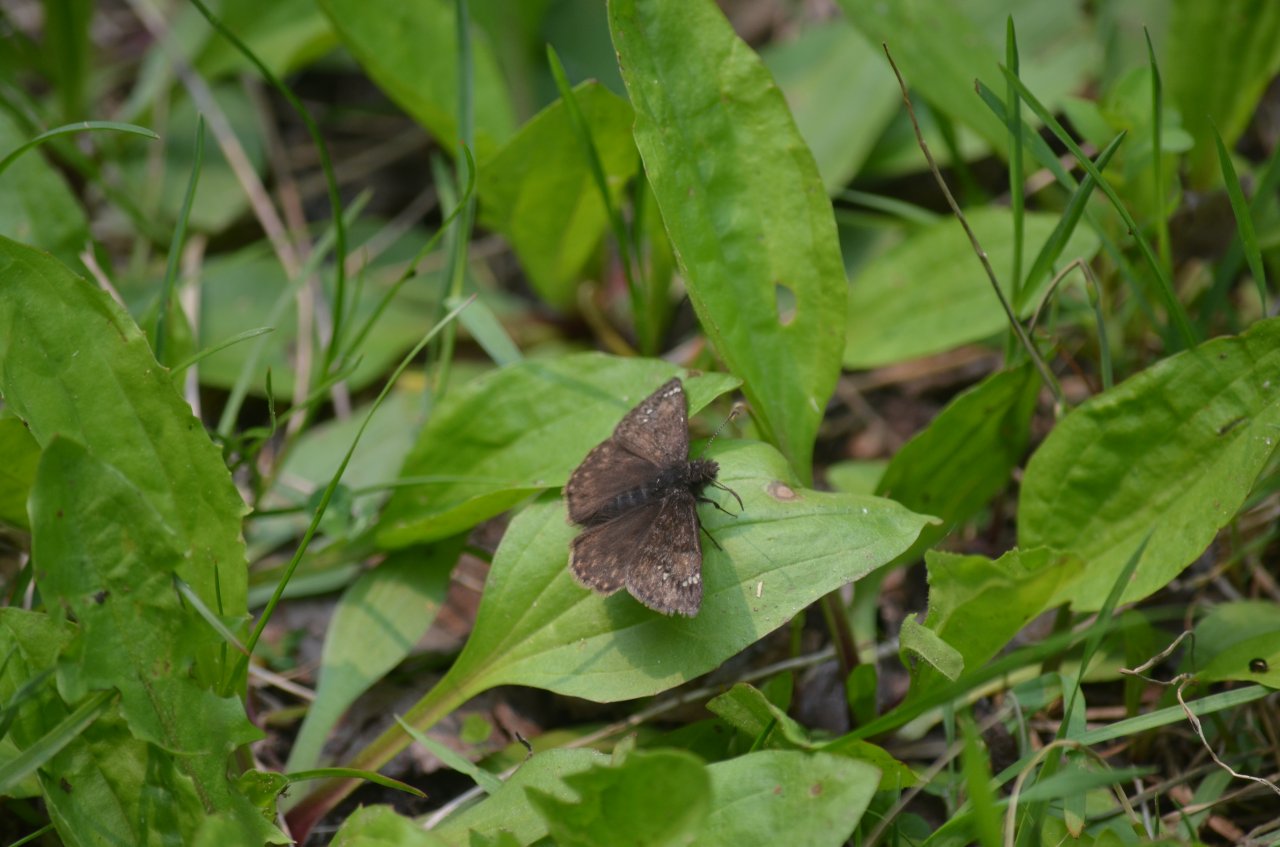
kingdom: Animalia
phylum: Arthropoda
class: Insecta
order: Lepidoptera
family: Hesperiidae
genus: Gesta
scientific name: Gesta
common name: Juvenal's Duskywing
